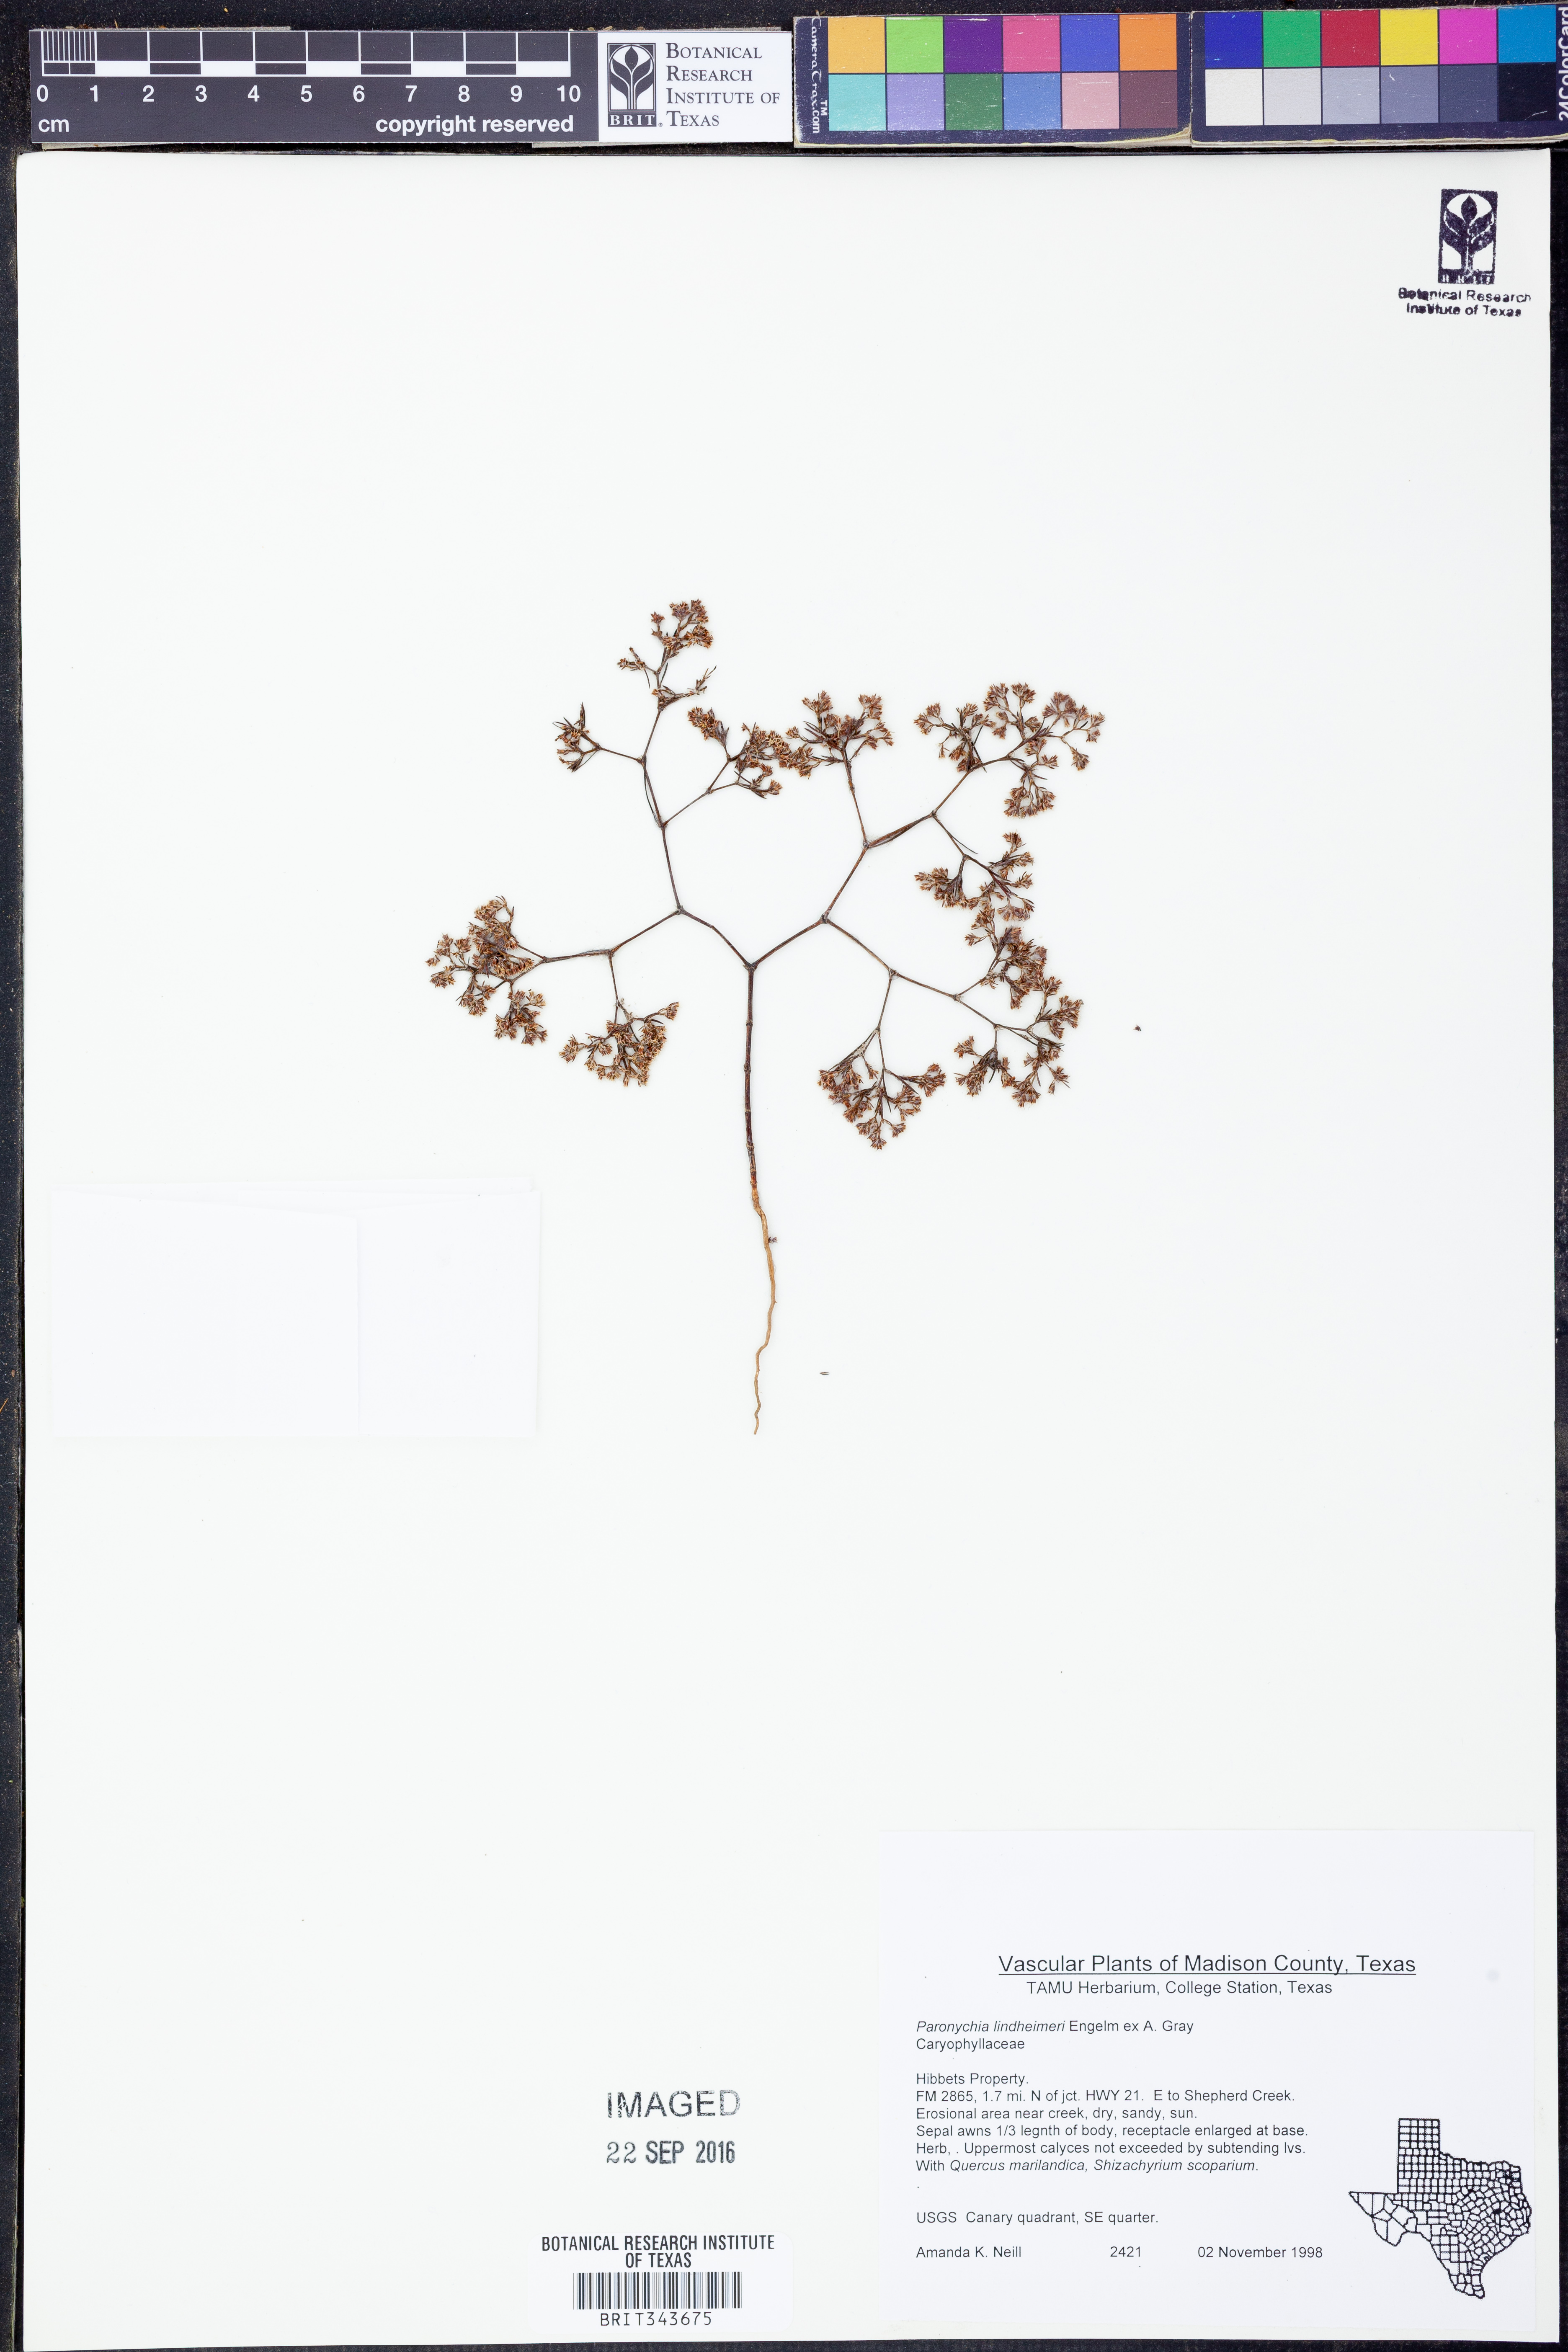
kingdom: Plantae
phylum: Tracheophyta
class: Magnoliopsida
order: Caryophyllales
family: Caryophyllaceae
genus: Paronychia
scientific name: Paronychia lindheimeri
